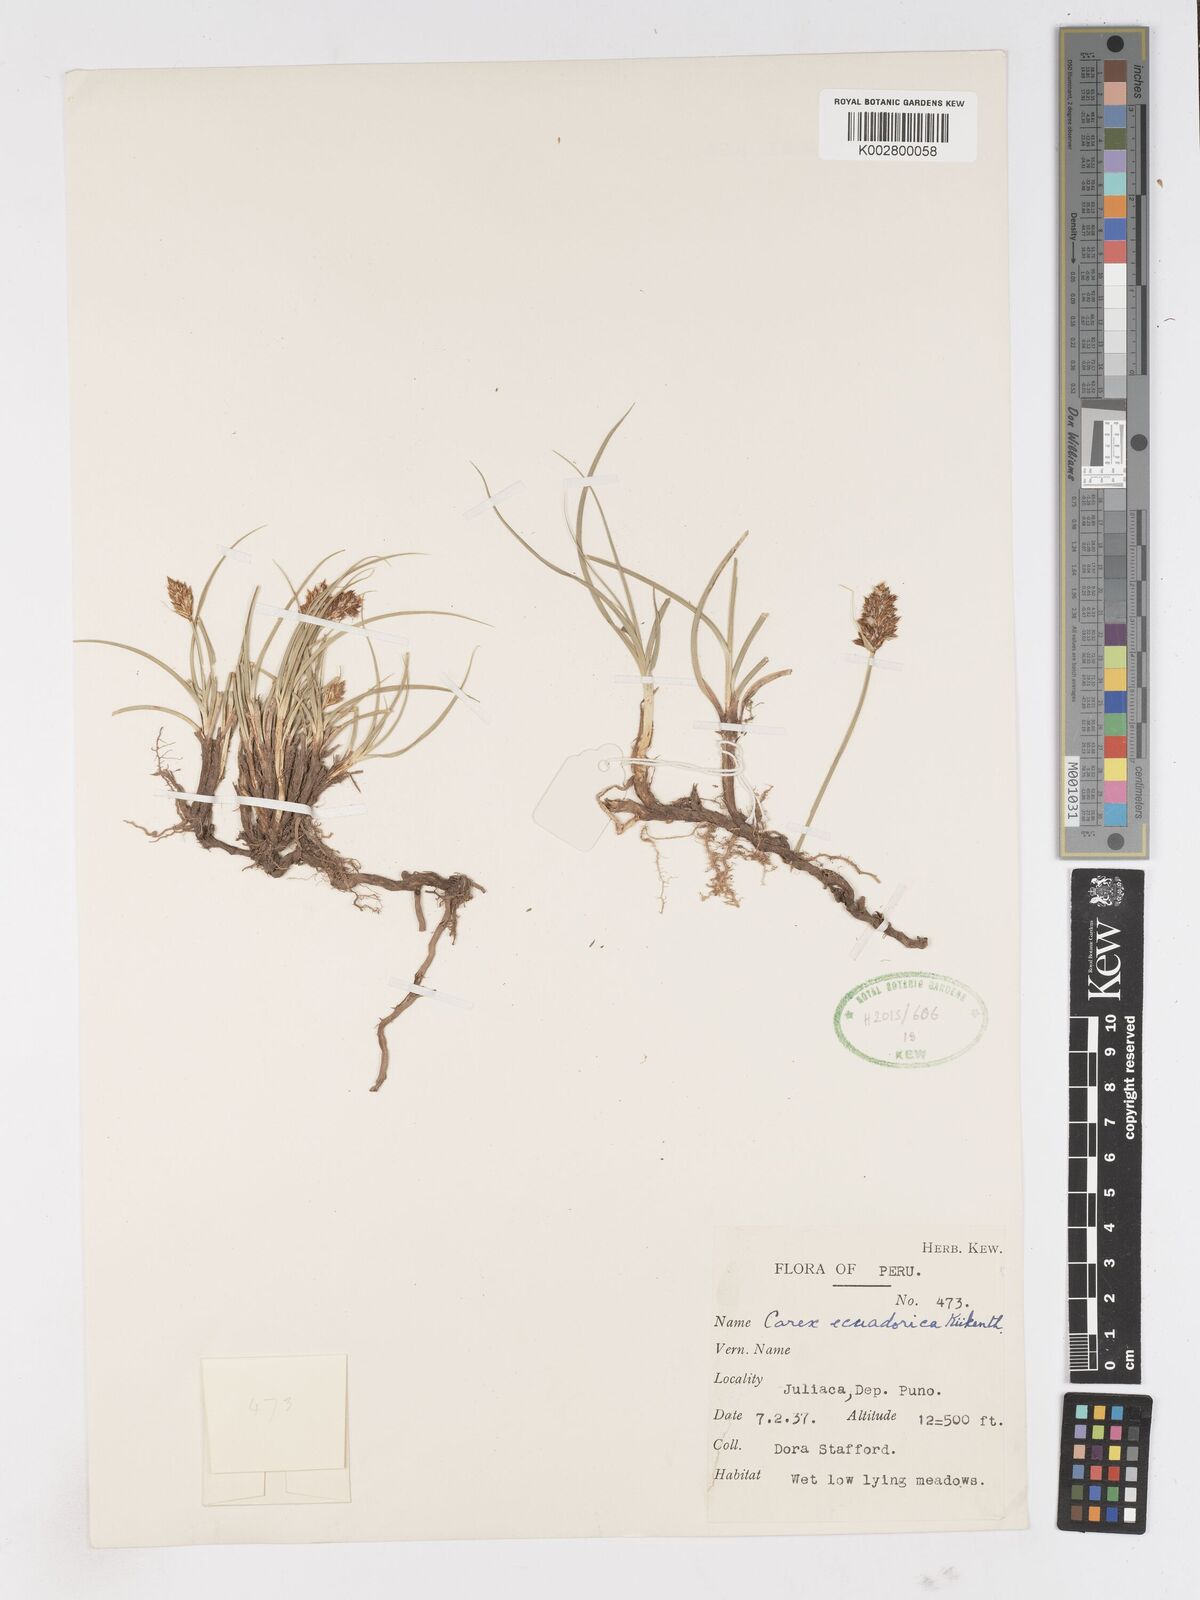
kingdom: Plantae
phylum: Tracheophyta
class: Liliopsida
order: Poales
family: Cyperaceae
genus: Carex
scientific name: Carex ecuadorica
